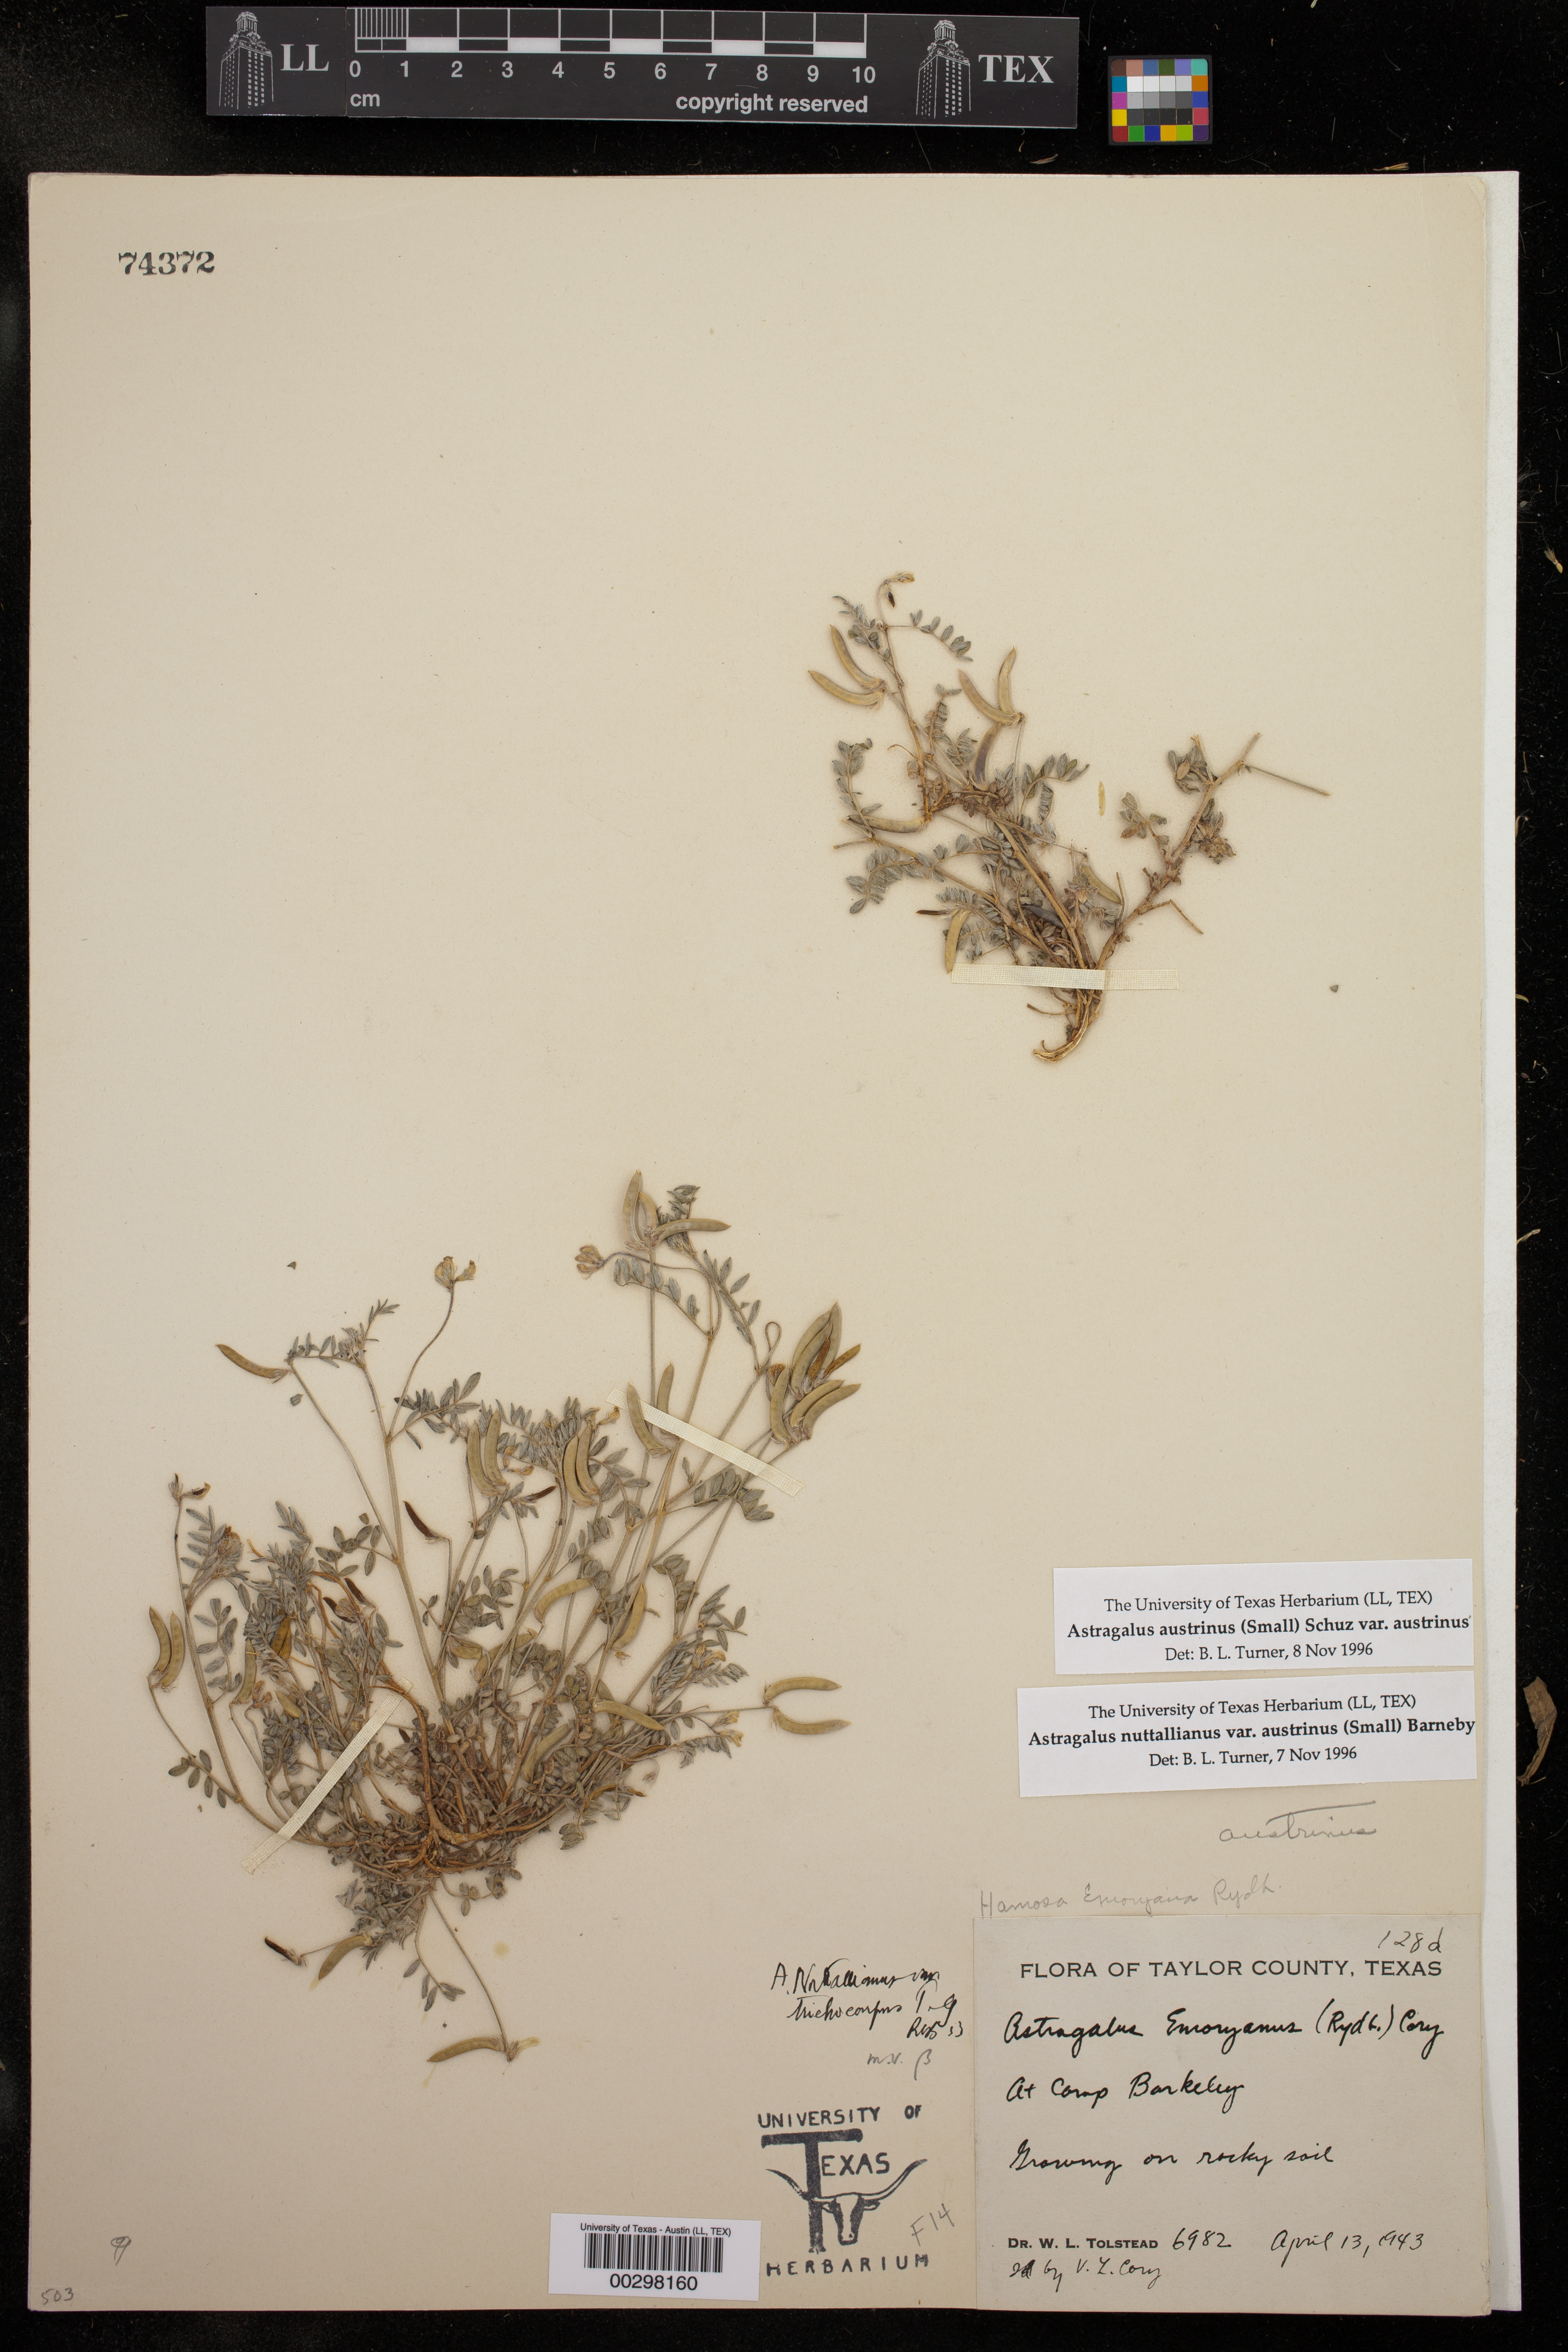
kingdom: Plantae
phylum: Tracheophyta
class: Magnoliopsida
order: Fabales
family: Fabaceae
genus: Astragalus
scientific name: Astragalus nuttallianus
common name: Smallflowered milkvetch
